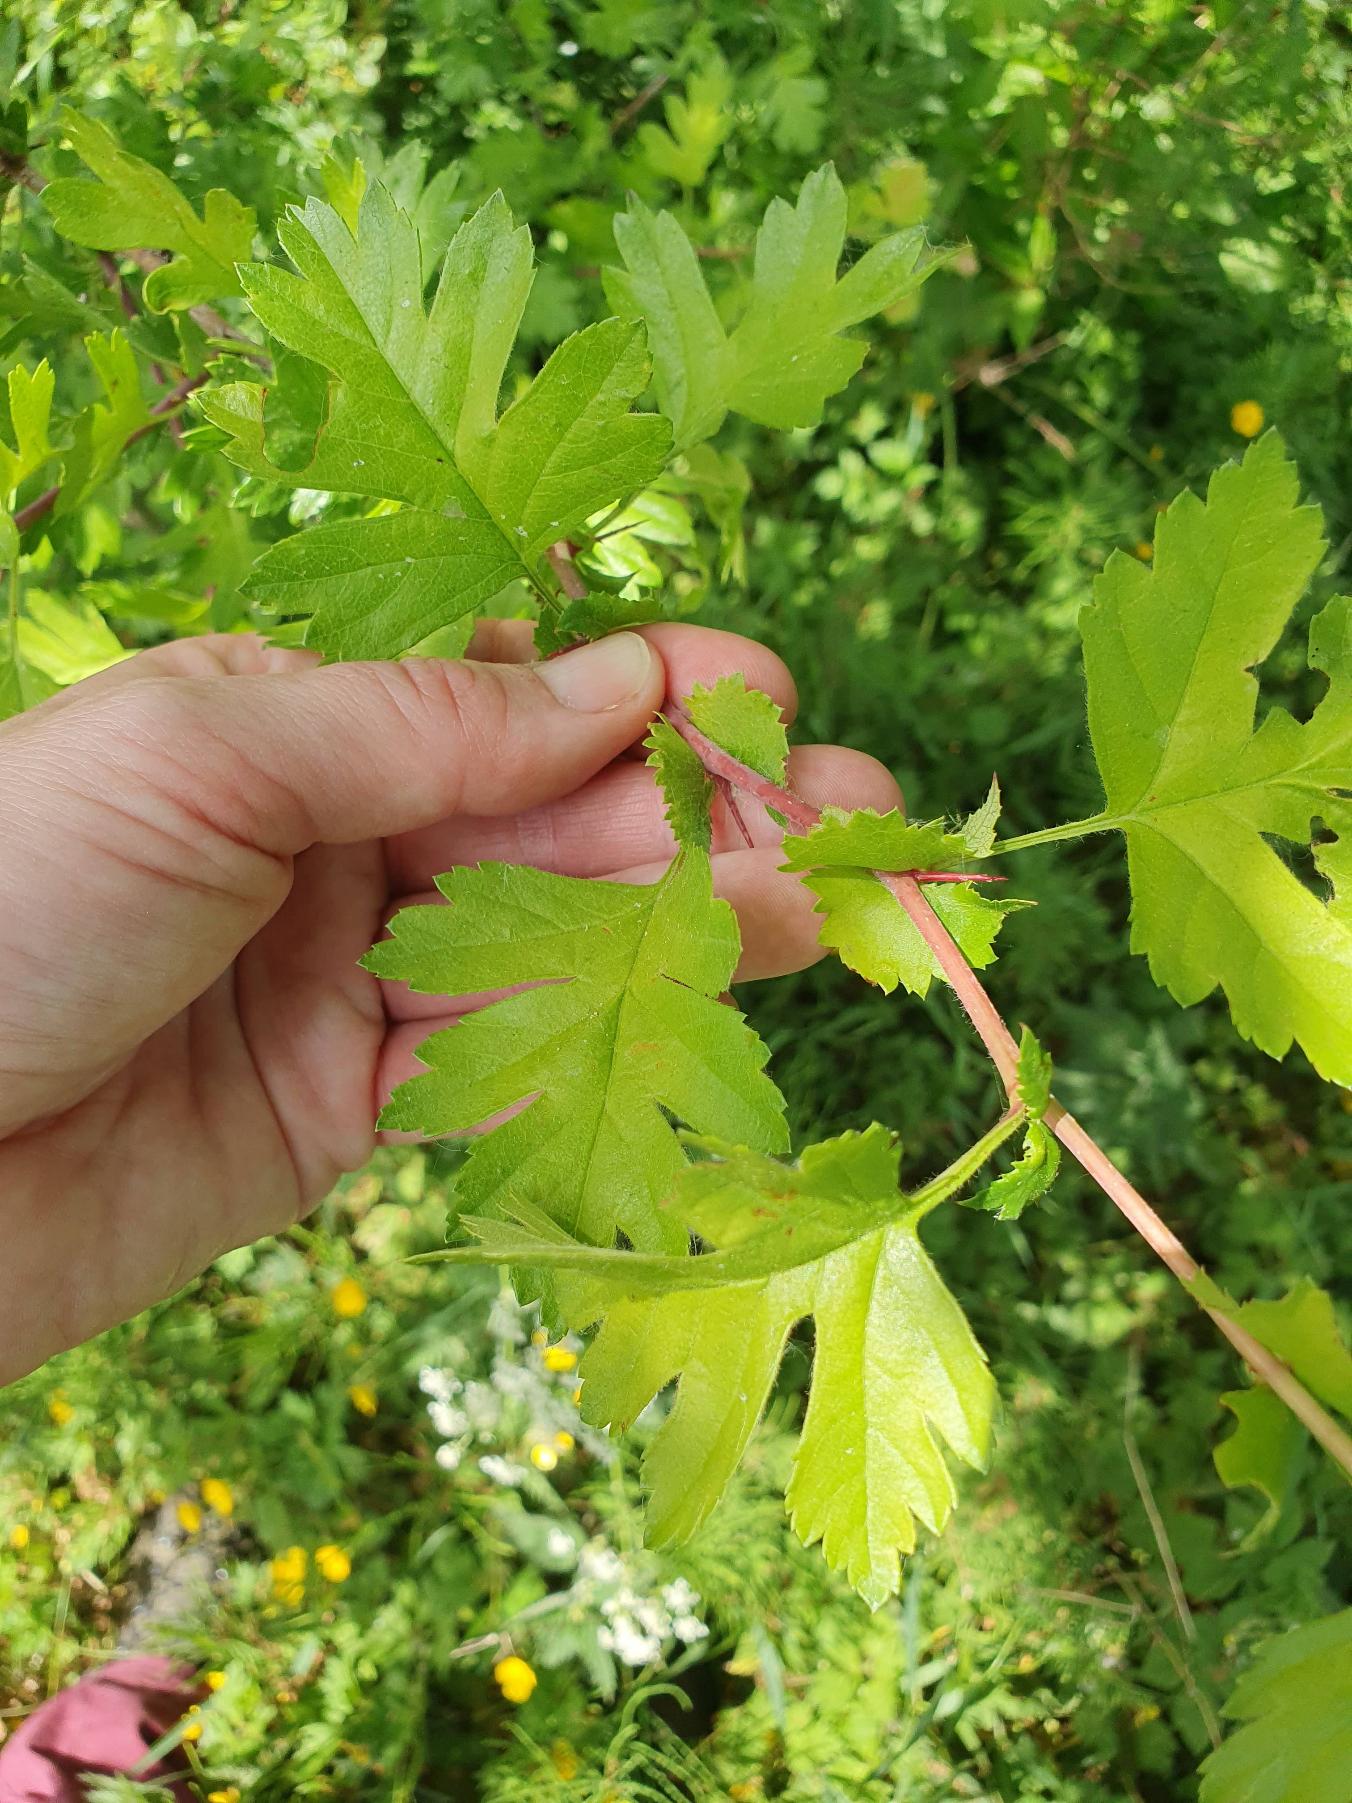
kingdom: Plantae
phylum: Tracheophyta
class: Magnoliopsida
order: Rosales
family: Rosaceae
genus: Crataegus
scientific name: Crataegus monogyna
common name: Engriflet hvidtjørn
